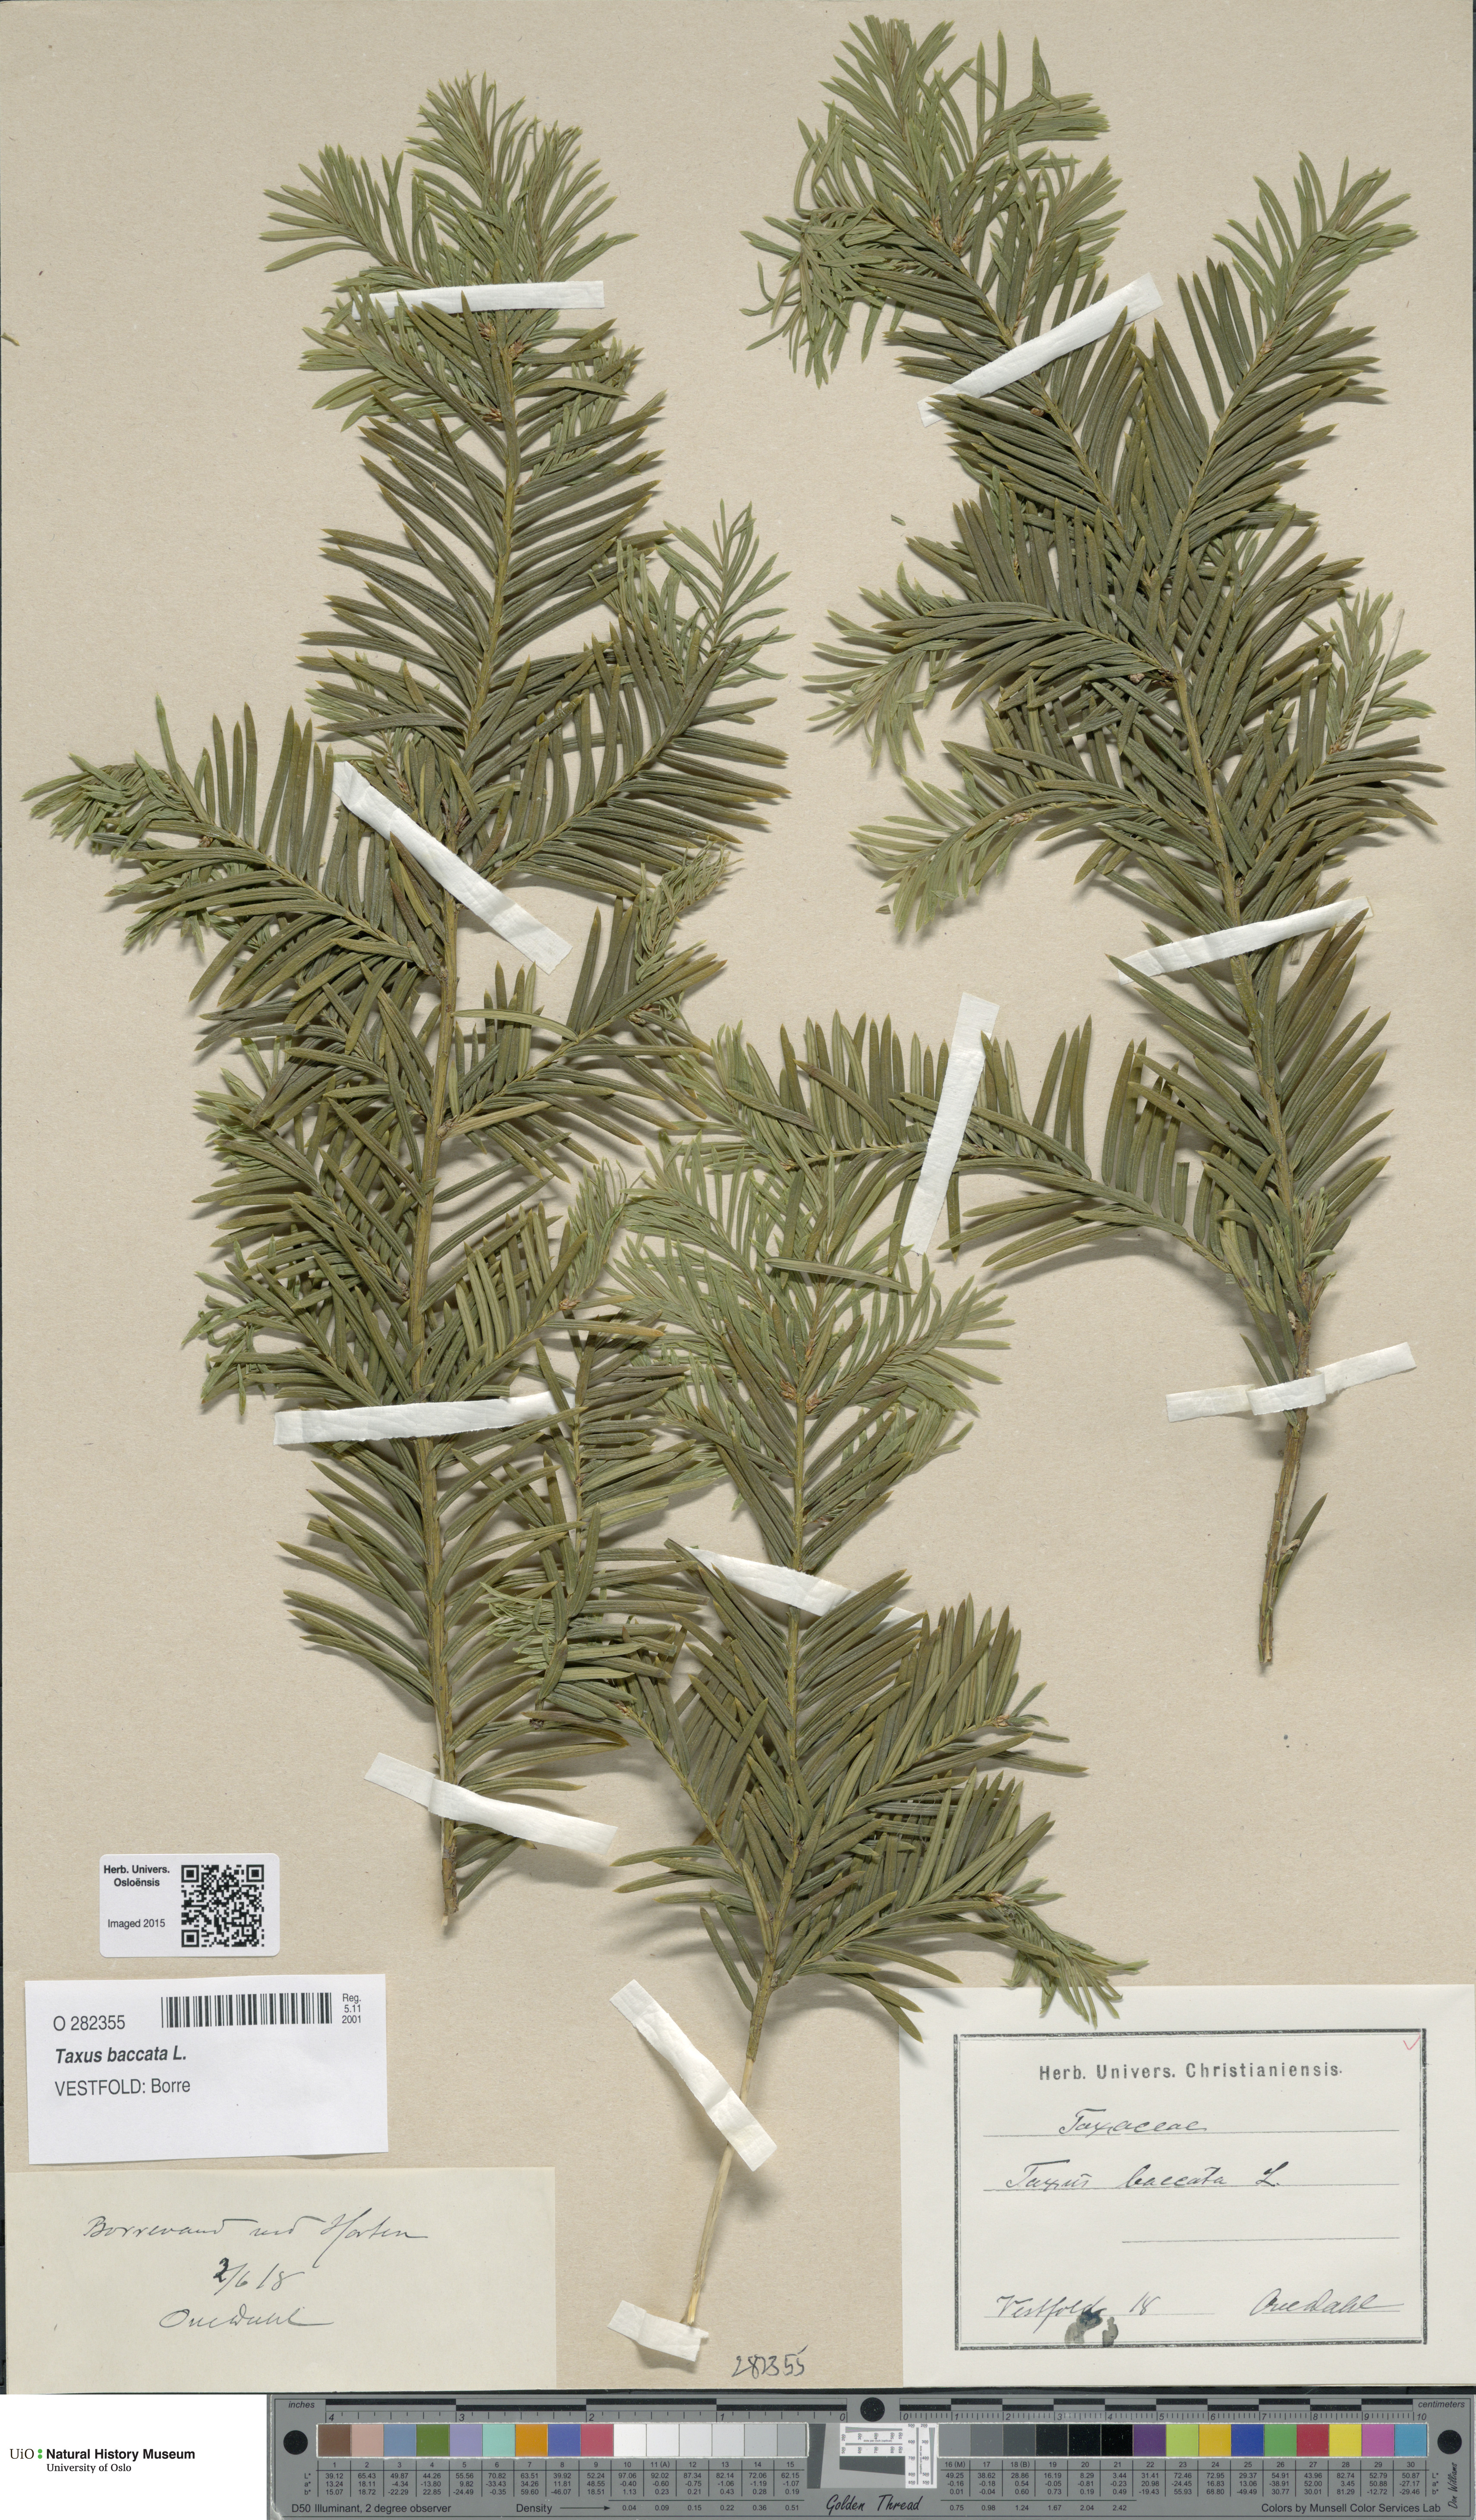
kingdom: Plantae
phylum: Tracheophyta
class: Pinopsida
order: Pinales
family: Taxaceae
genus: Taxus
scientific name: Taxus baccata
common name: Yew
